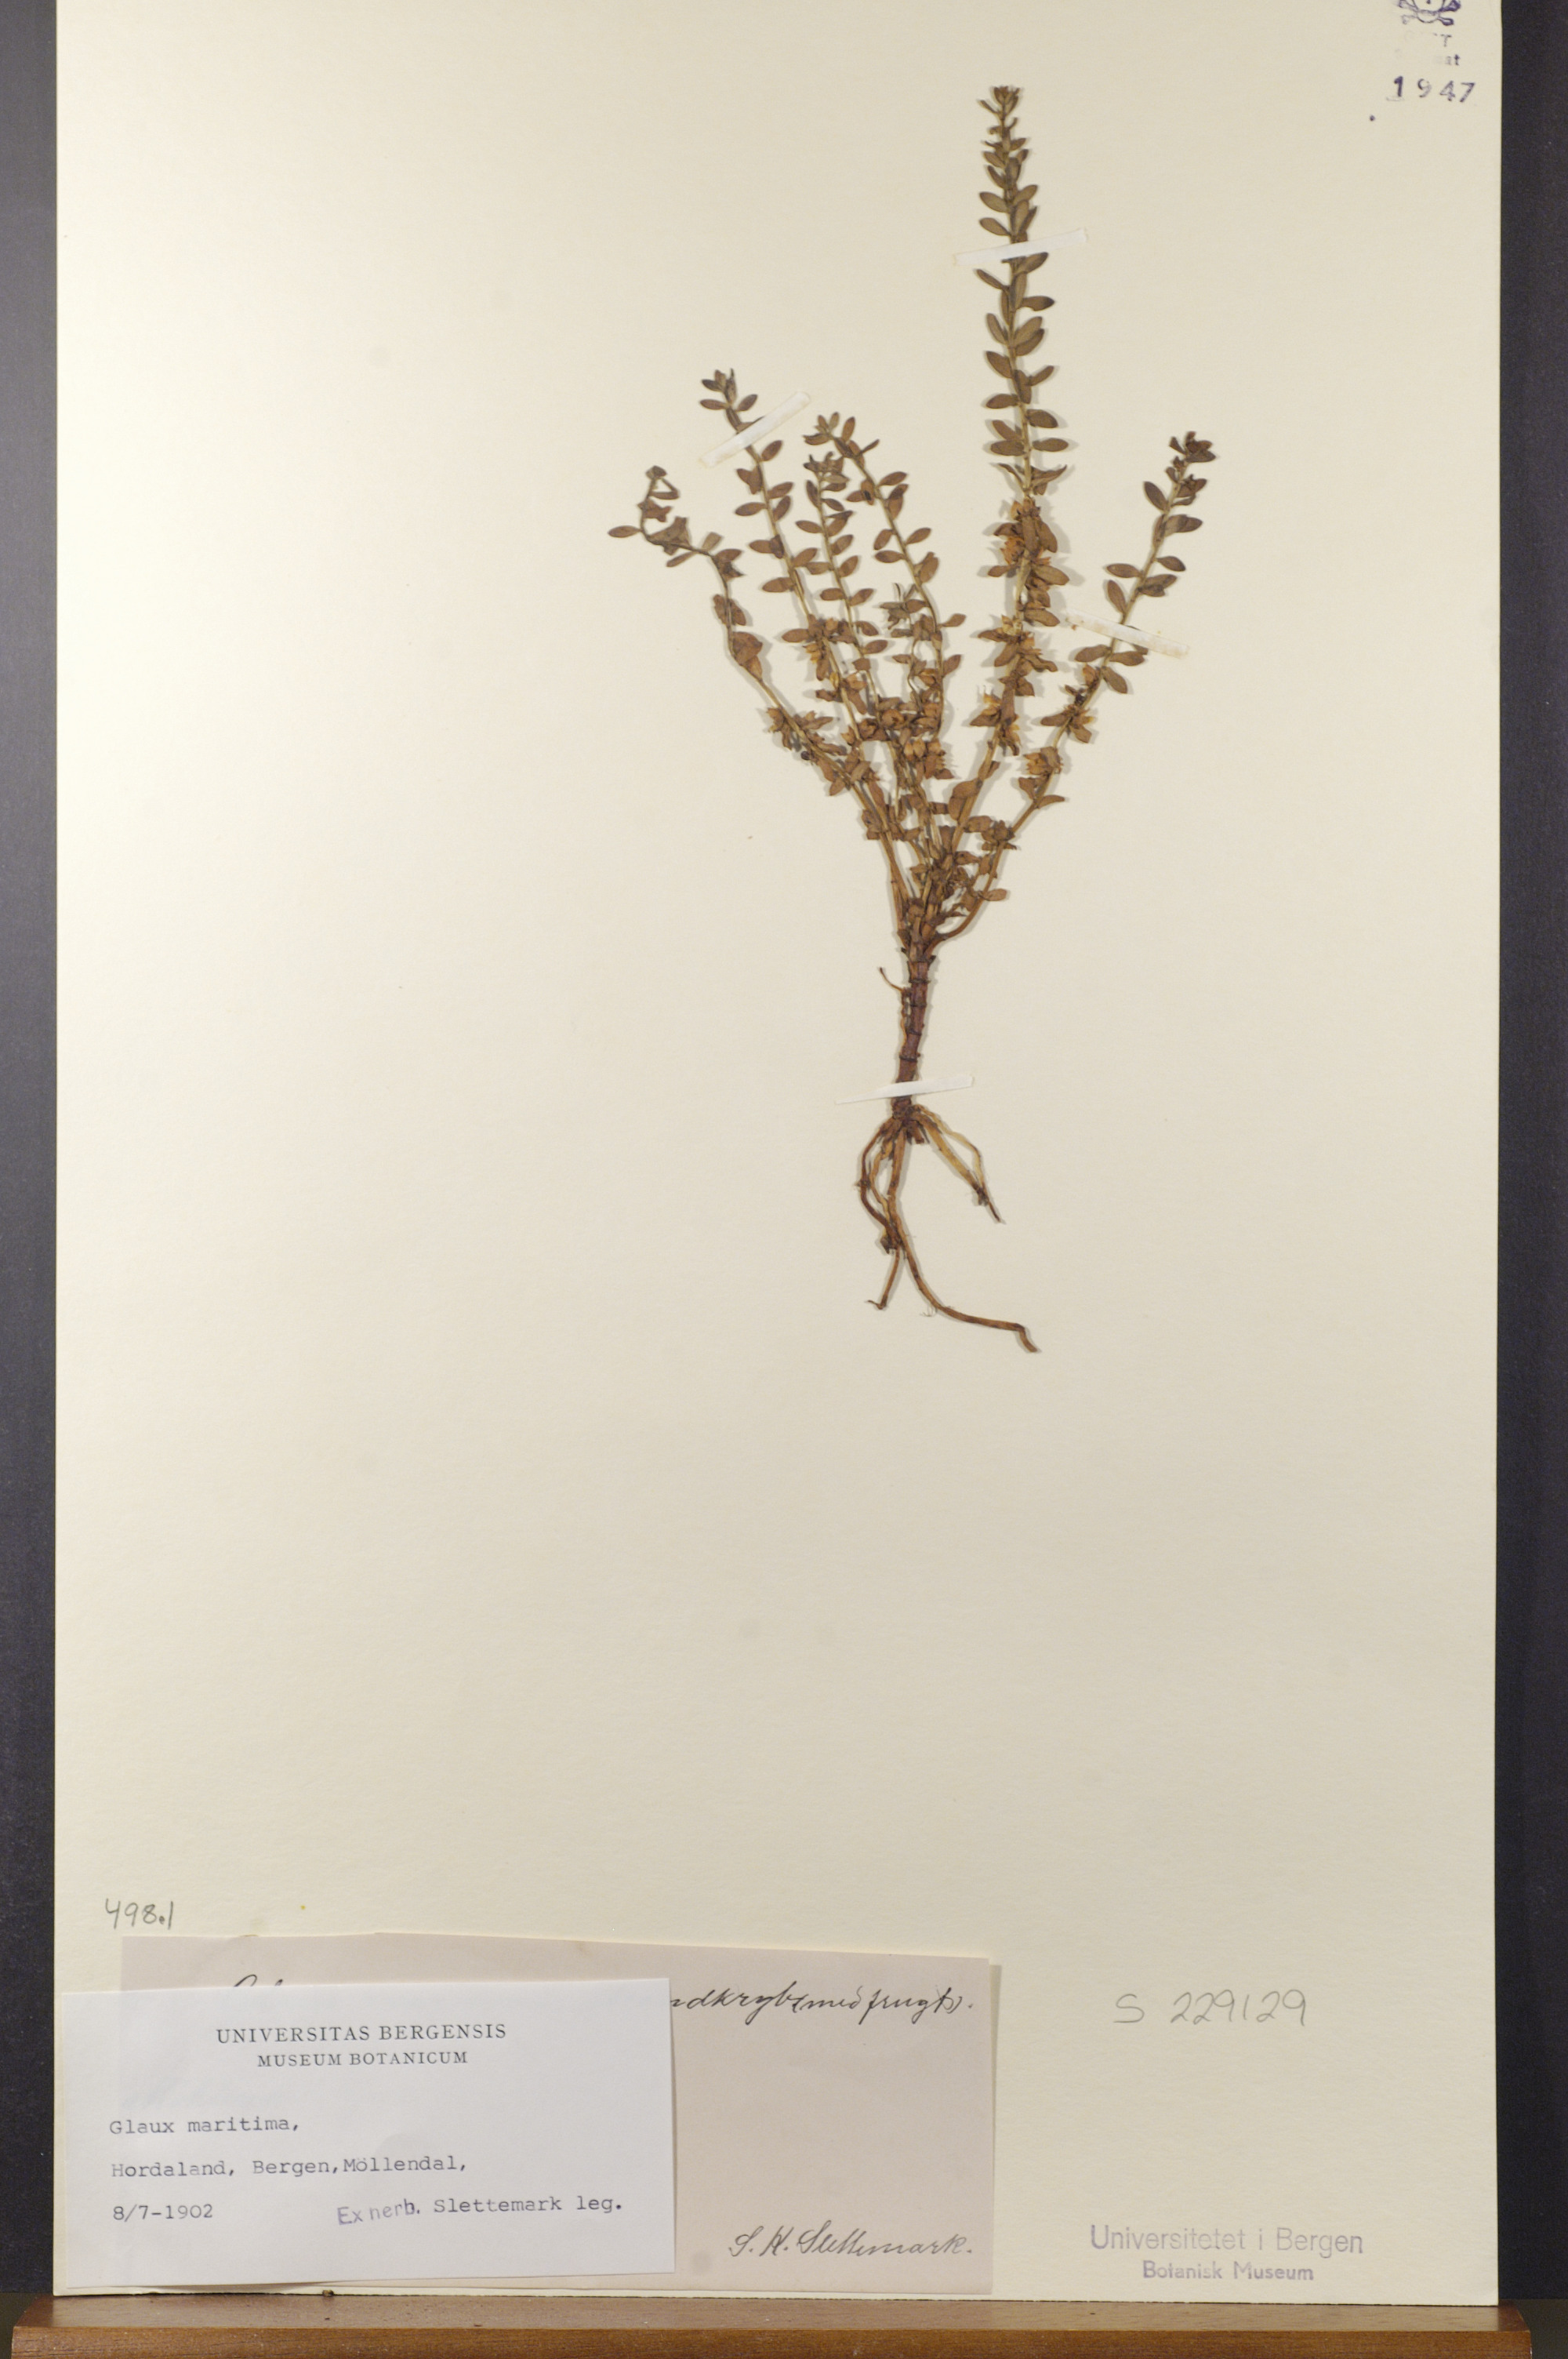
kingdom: Plantae
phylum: Tracheophyta
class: Magnoliopsida
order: Ericales
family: Primulaceae
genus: Lysimachia
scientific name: Lysimachia maritima
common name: Sea milkwort
